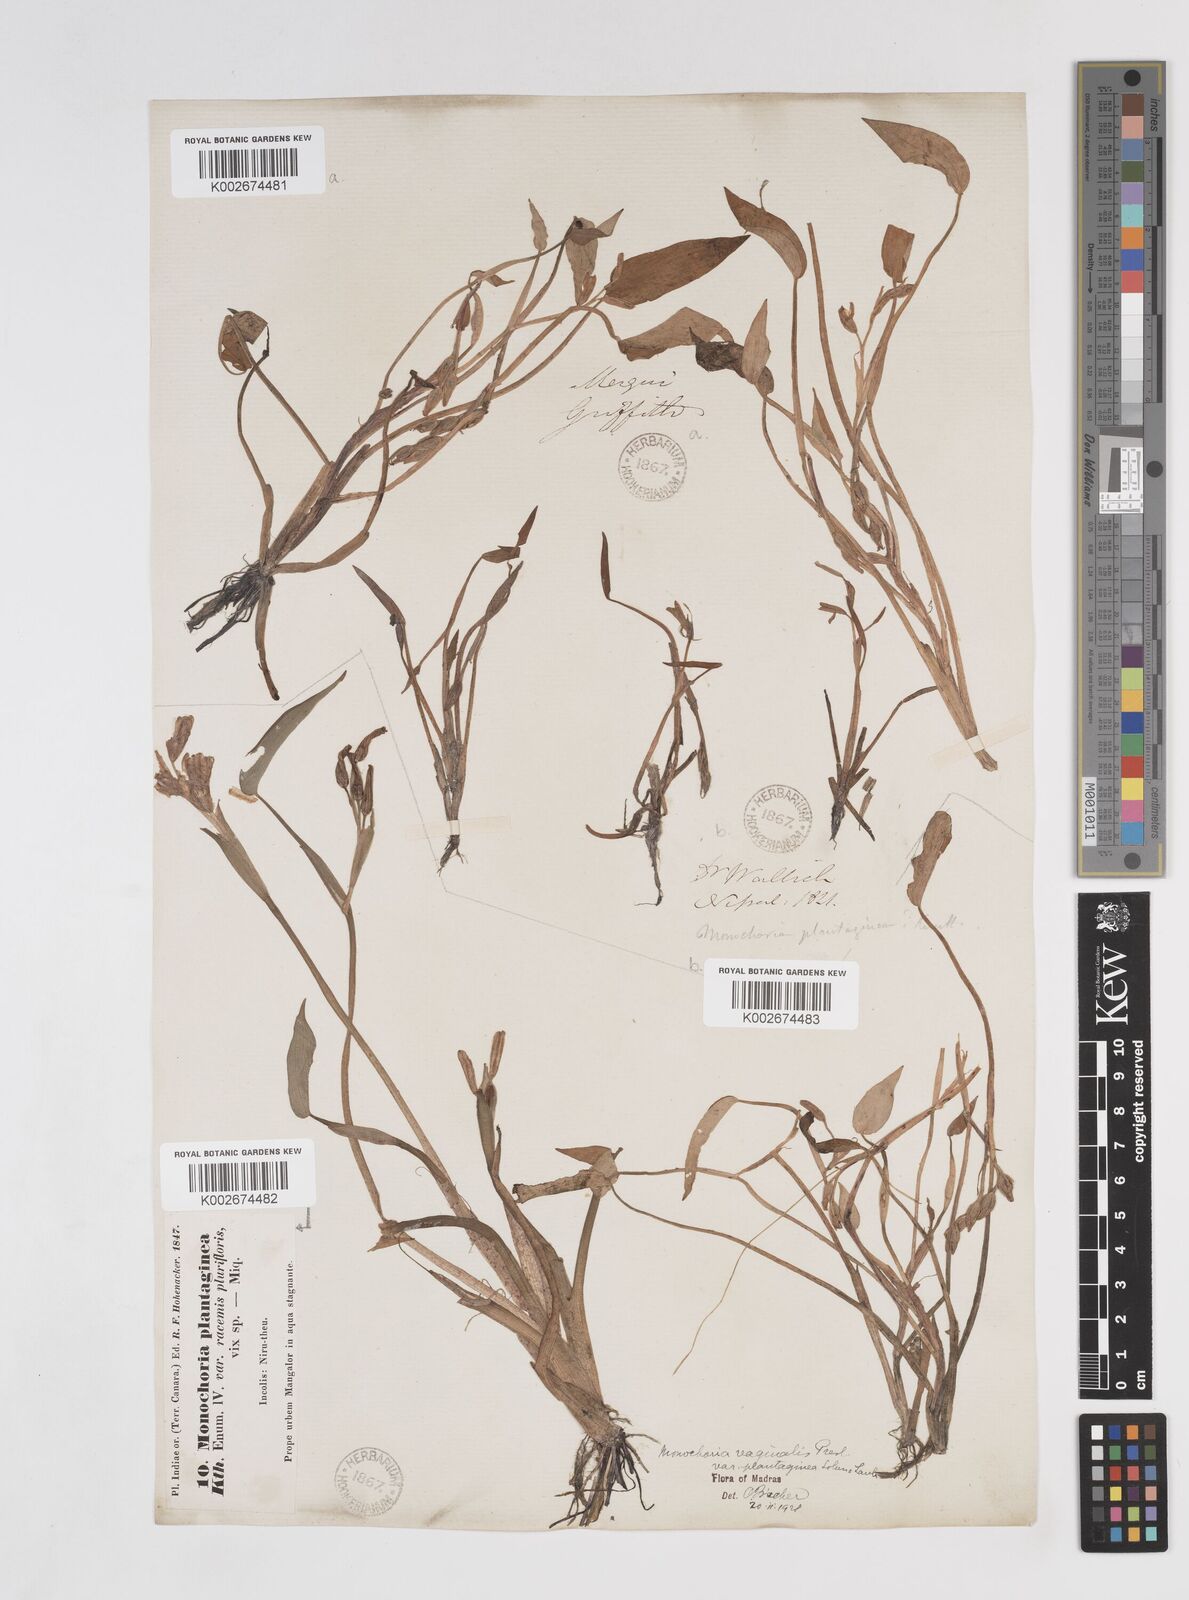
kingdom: Plantae
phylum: Tracheophyta
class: Liliopsida
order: Commelinales
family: Pontederiaceae
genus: Pontederia
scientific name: Pontederia vaginalis
